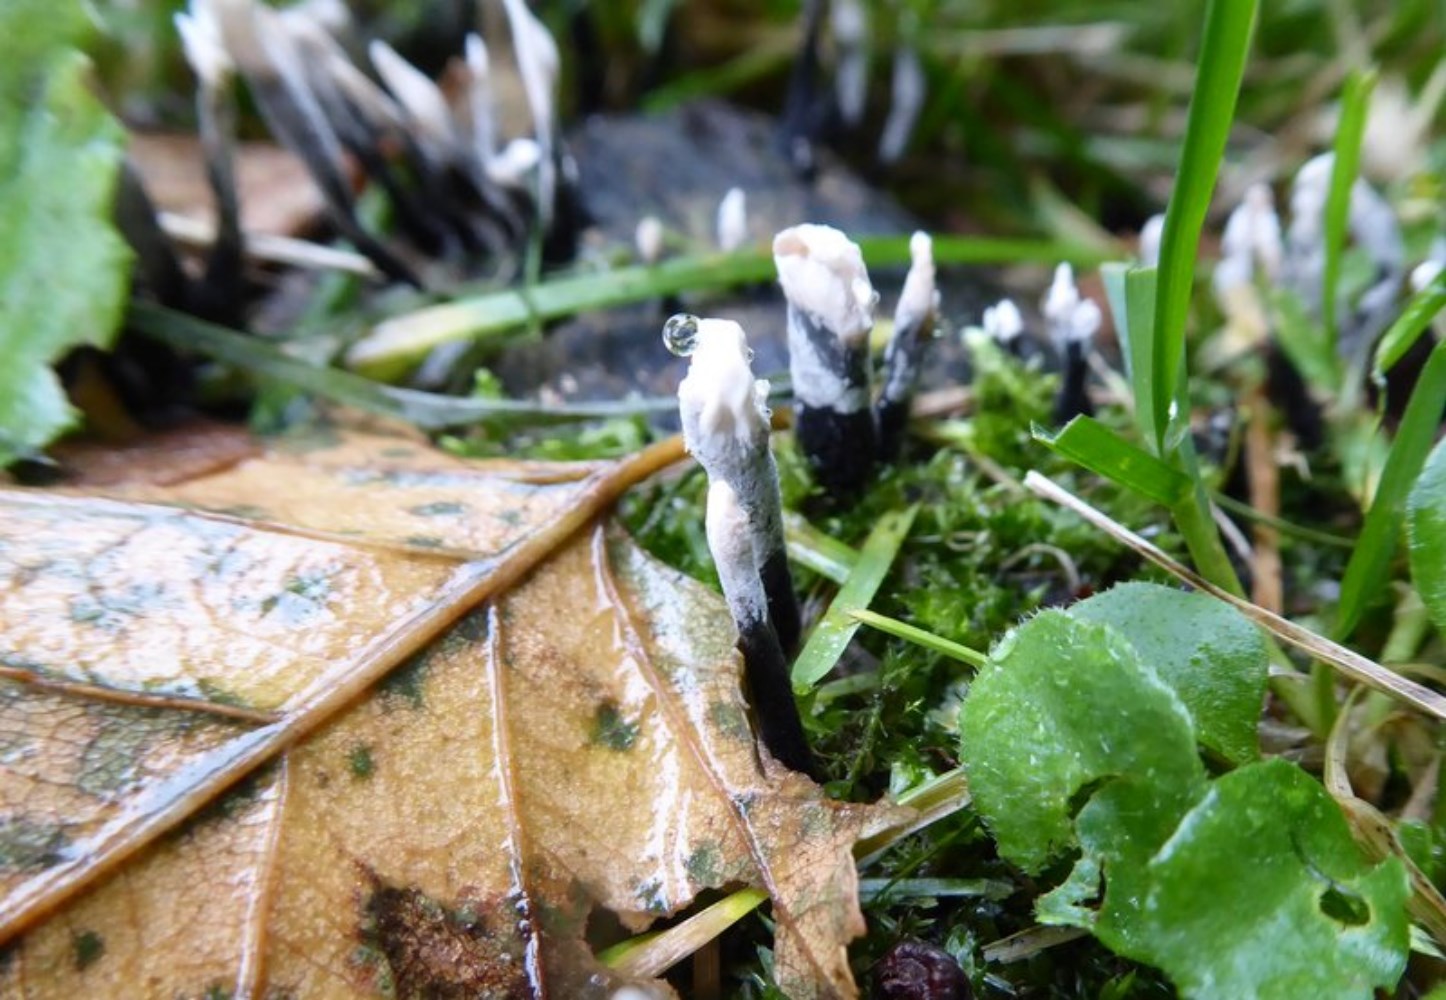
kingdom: Fungi
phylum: Ascomycota
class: Sordariomycetes
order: Xylariales
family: Xylariaceae
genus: Xylaria
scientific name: Xylaria hypoxylon
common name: grenet stødsvamp
